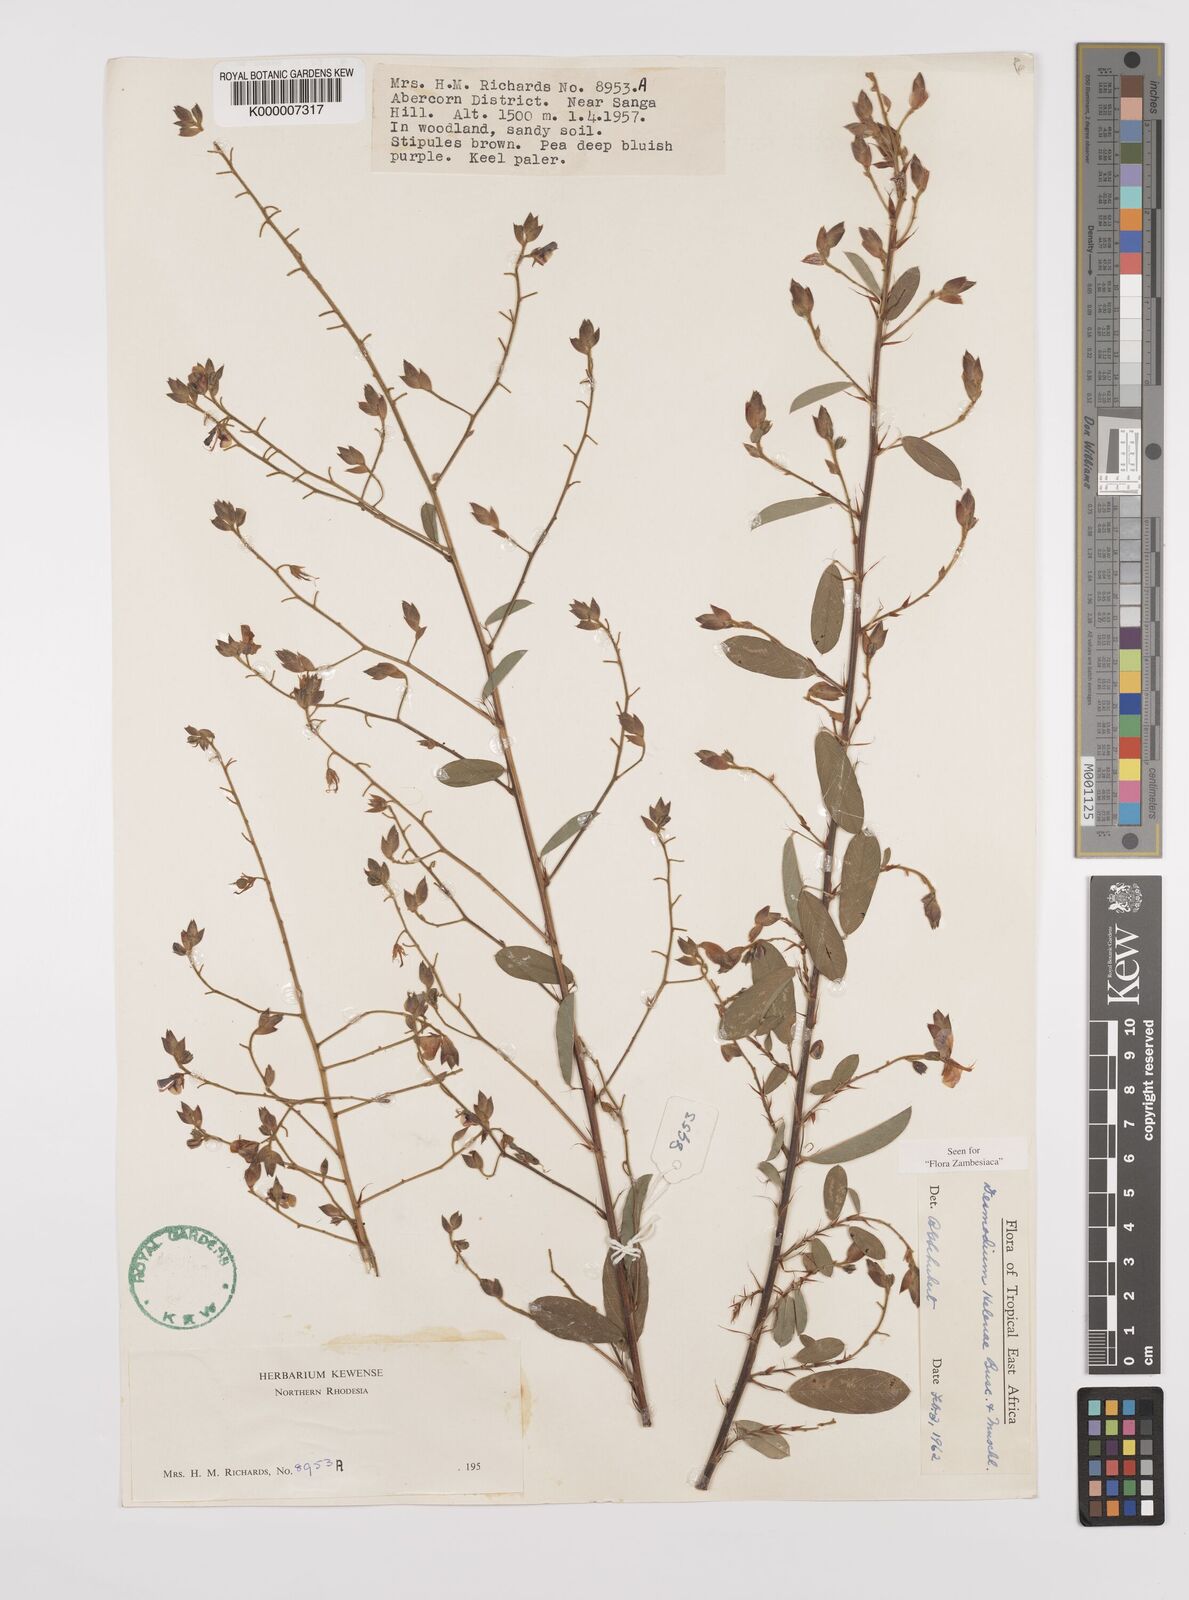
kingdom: Plantae
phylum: Tracheophyta
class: Magnoliopsida
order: Fabales
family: Fabaceae
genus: Grona
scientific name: Grona helenae
